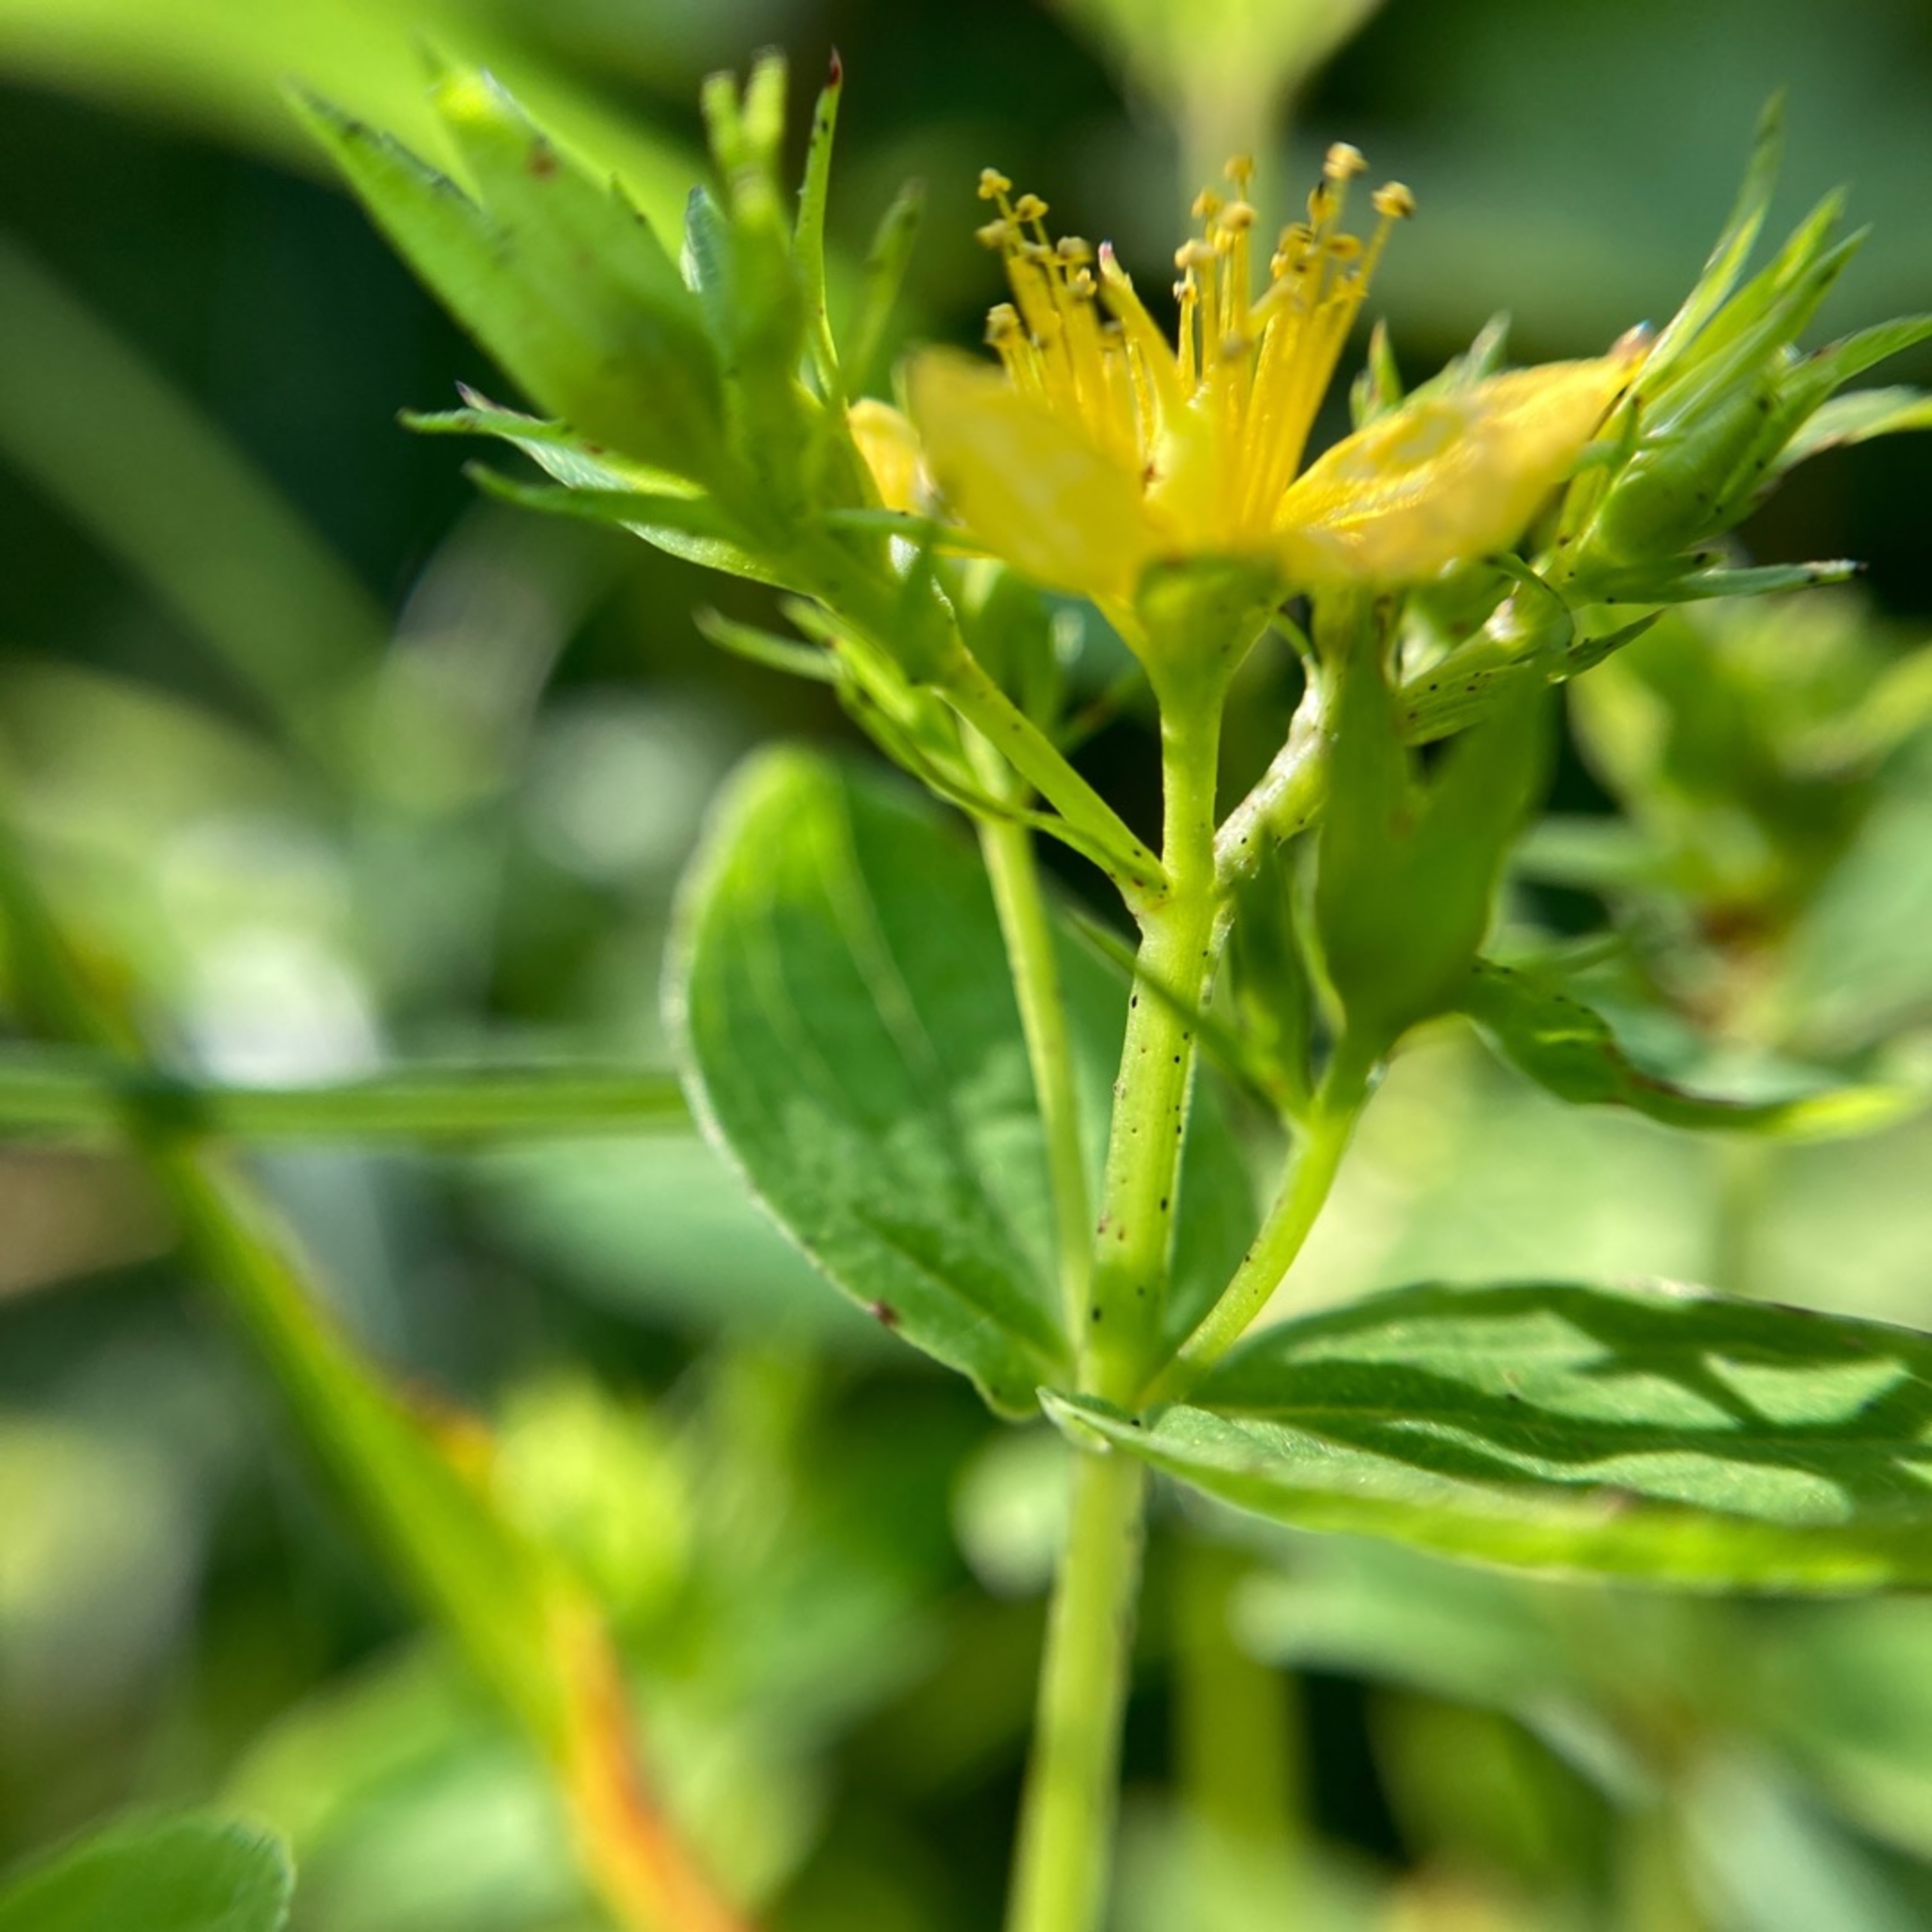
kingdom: Plantae
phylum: Tracheophyta
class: Magnoliopsida
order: Malpighiales
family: Hypericaceae
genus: Hypericum
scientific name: Hypericum tetrapterum
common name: Vinget perikon
